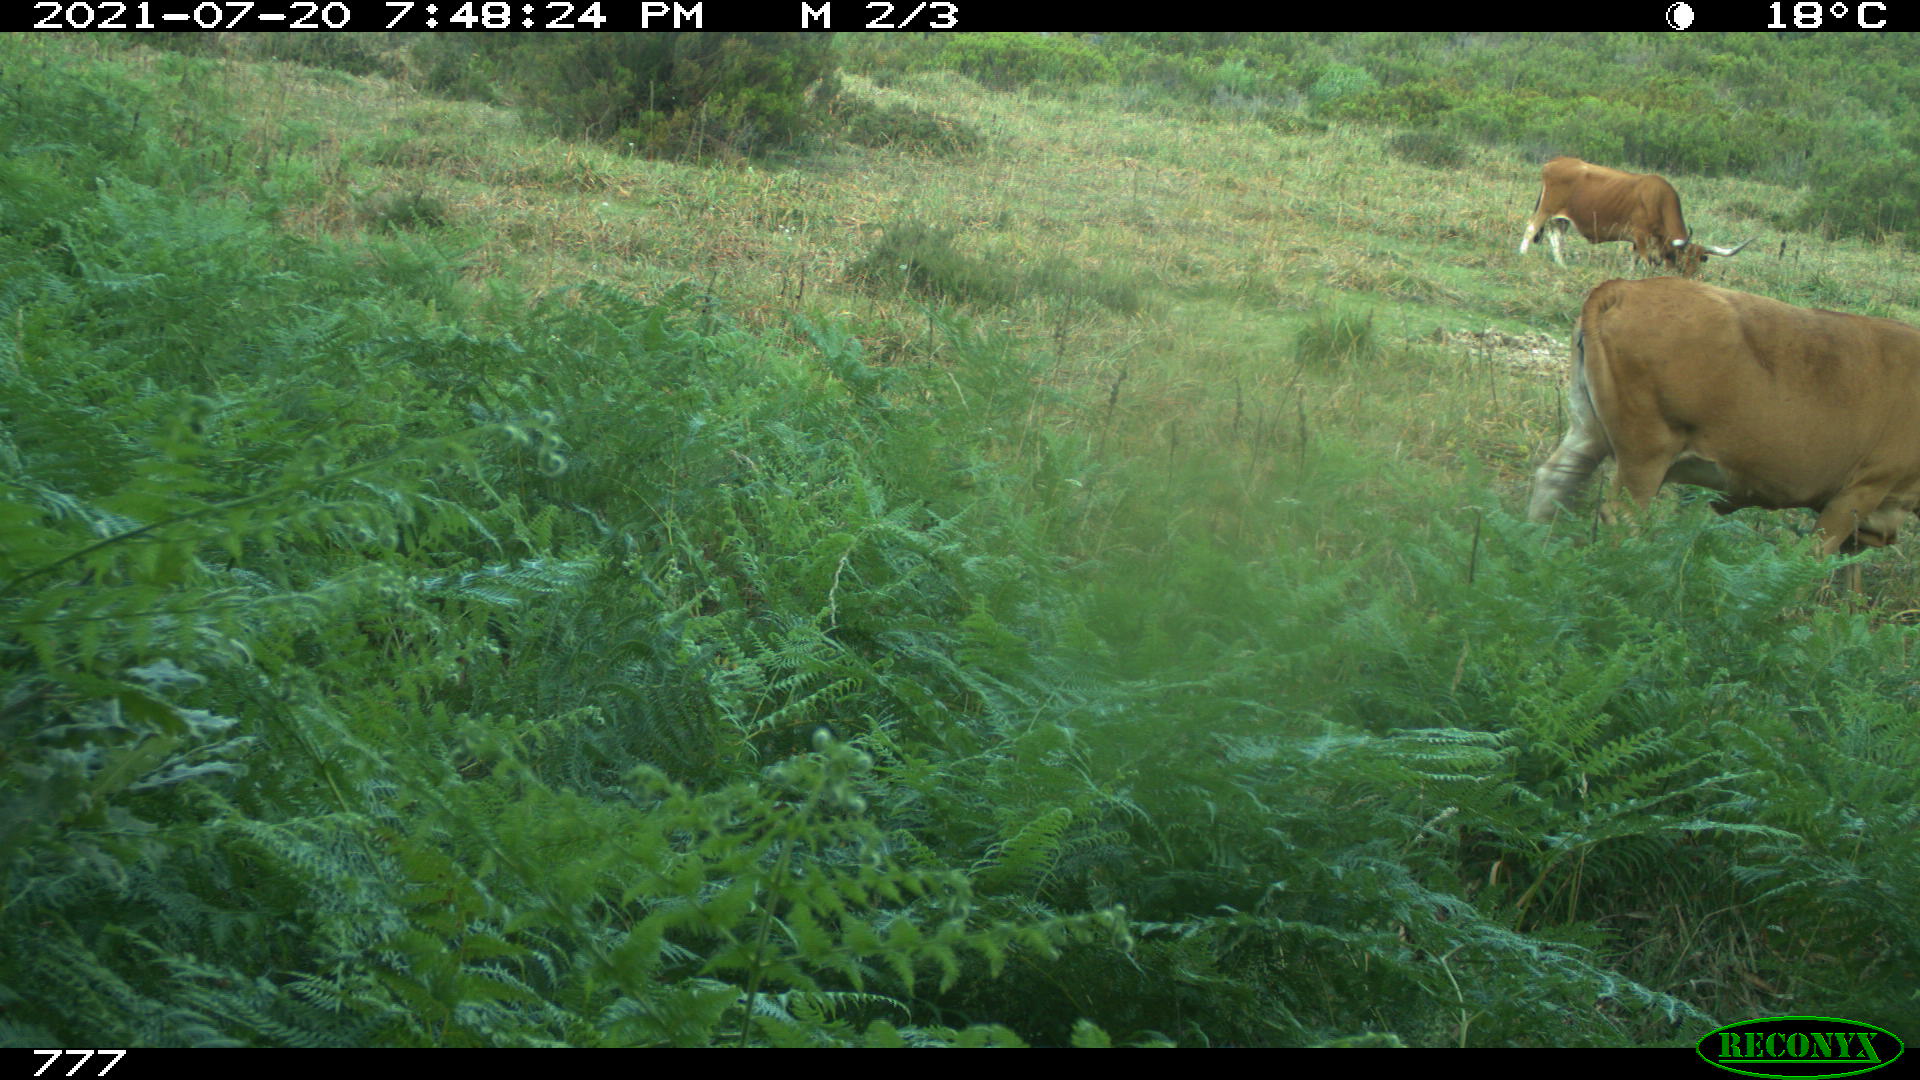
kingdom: Animalia
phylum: Chordata
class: Mammalia
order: Artiodactyla
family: Bovidae
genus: Bos
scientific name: Bos taurus
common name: Domesticated cattle
